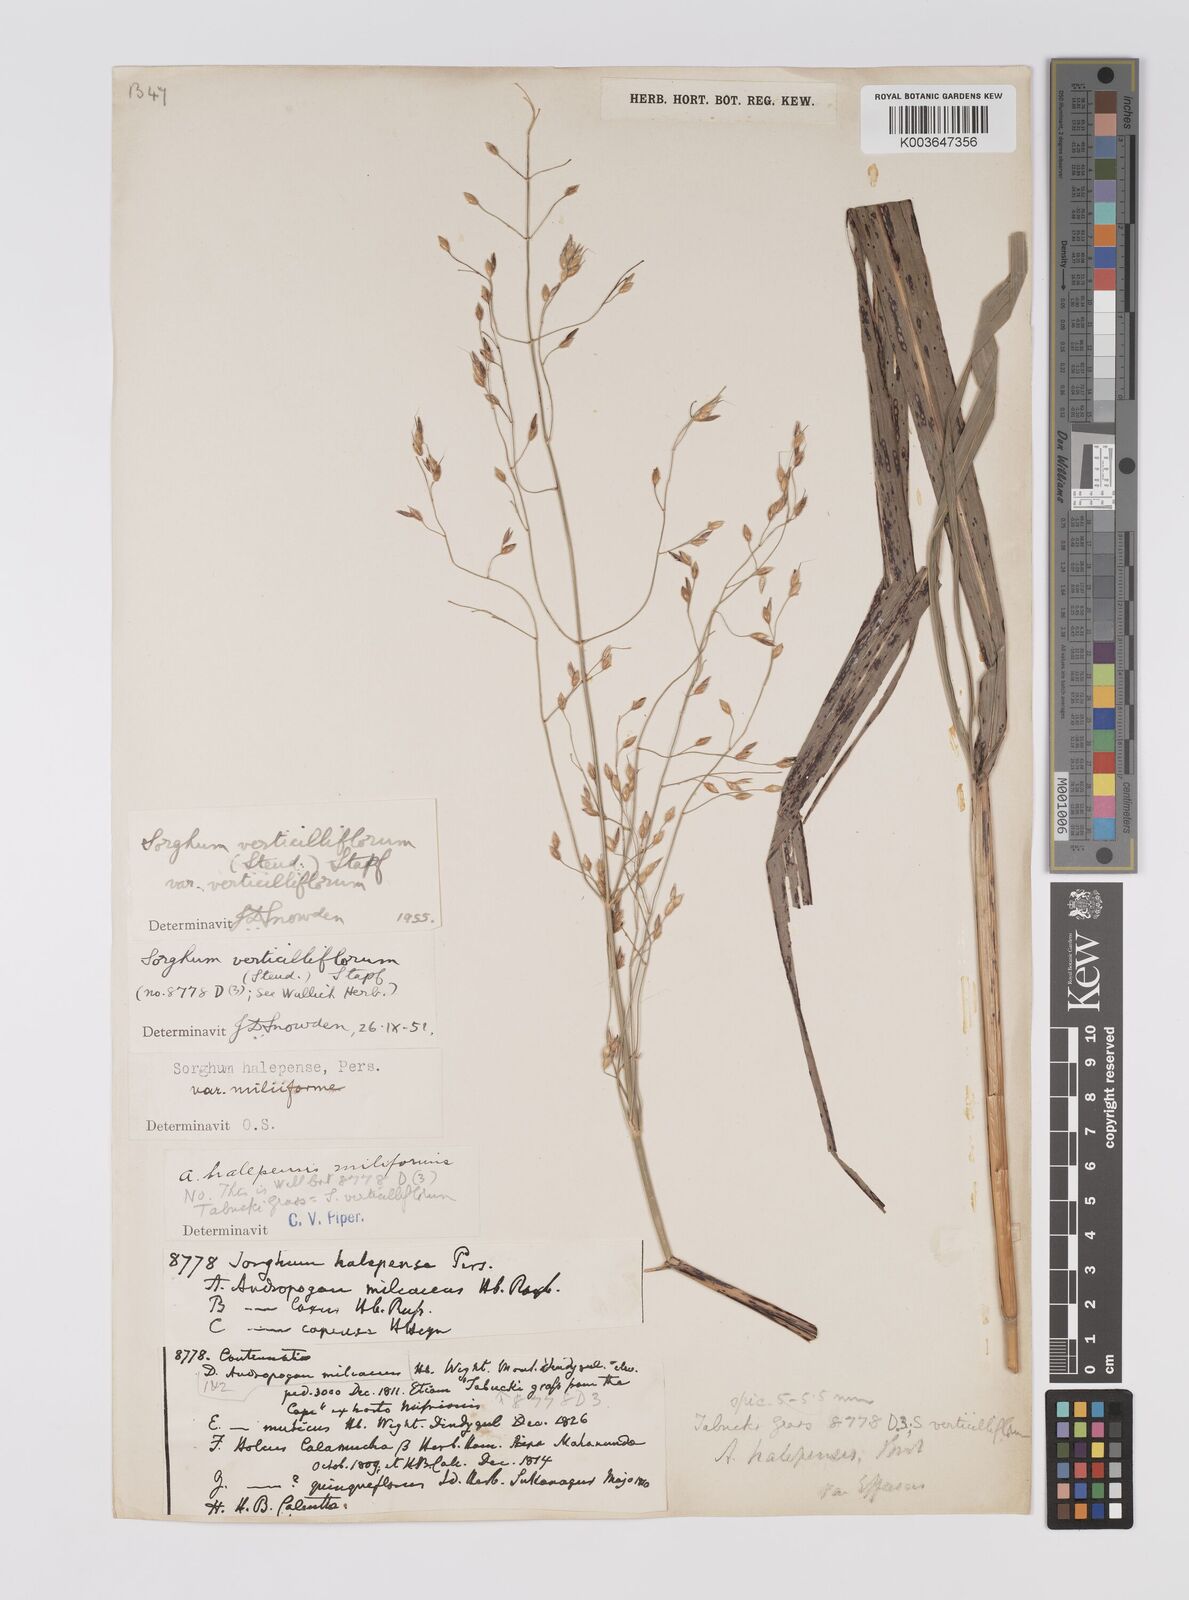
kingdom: Plantae
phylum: Tracheophyta
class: Liliopsida
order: Poales
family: Poaceae
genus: Sorghum
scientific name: Sorghum arundinaceum
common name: Sorghum
